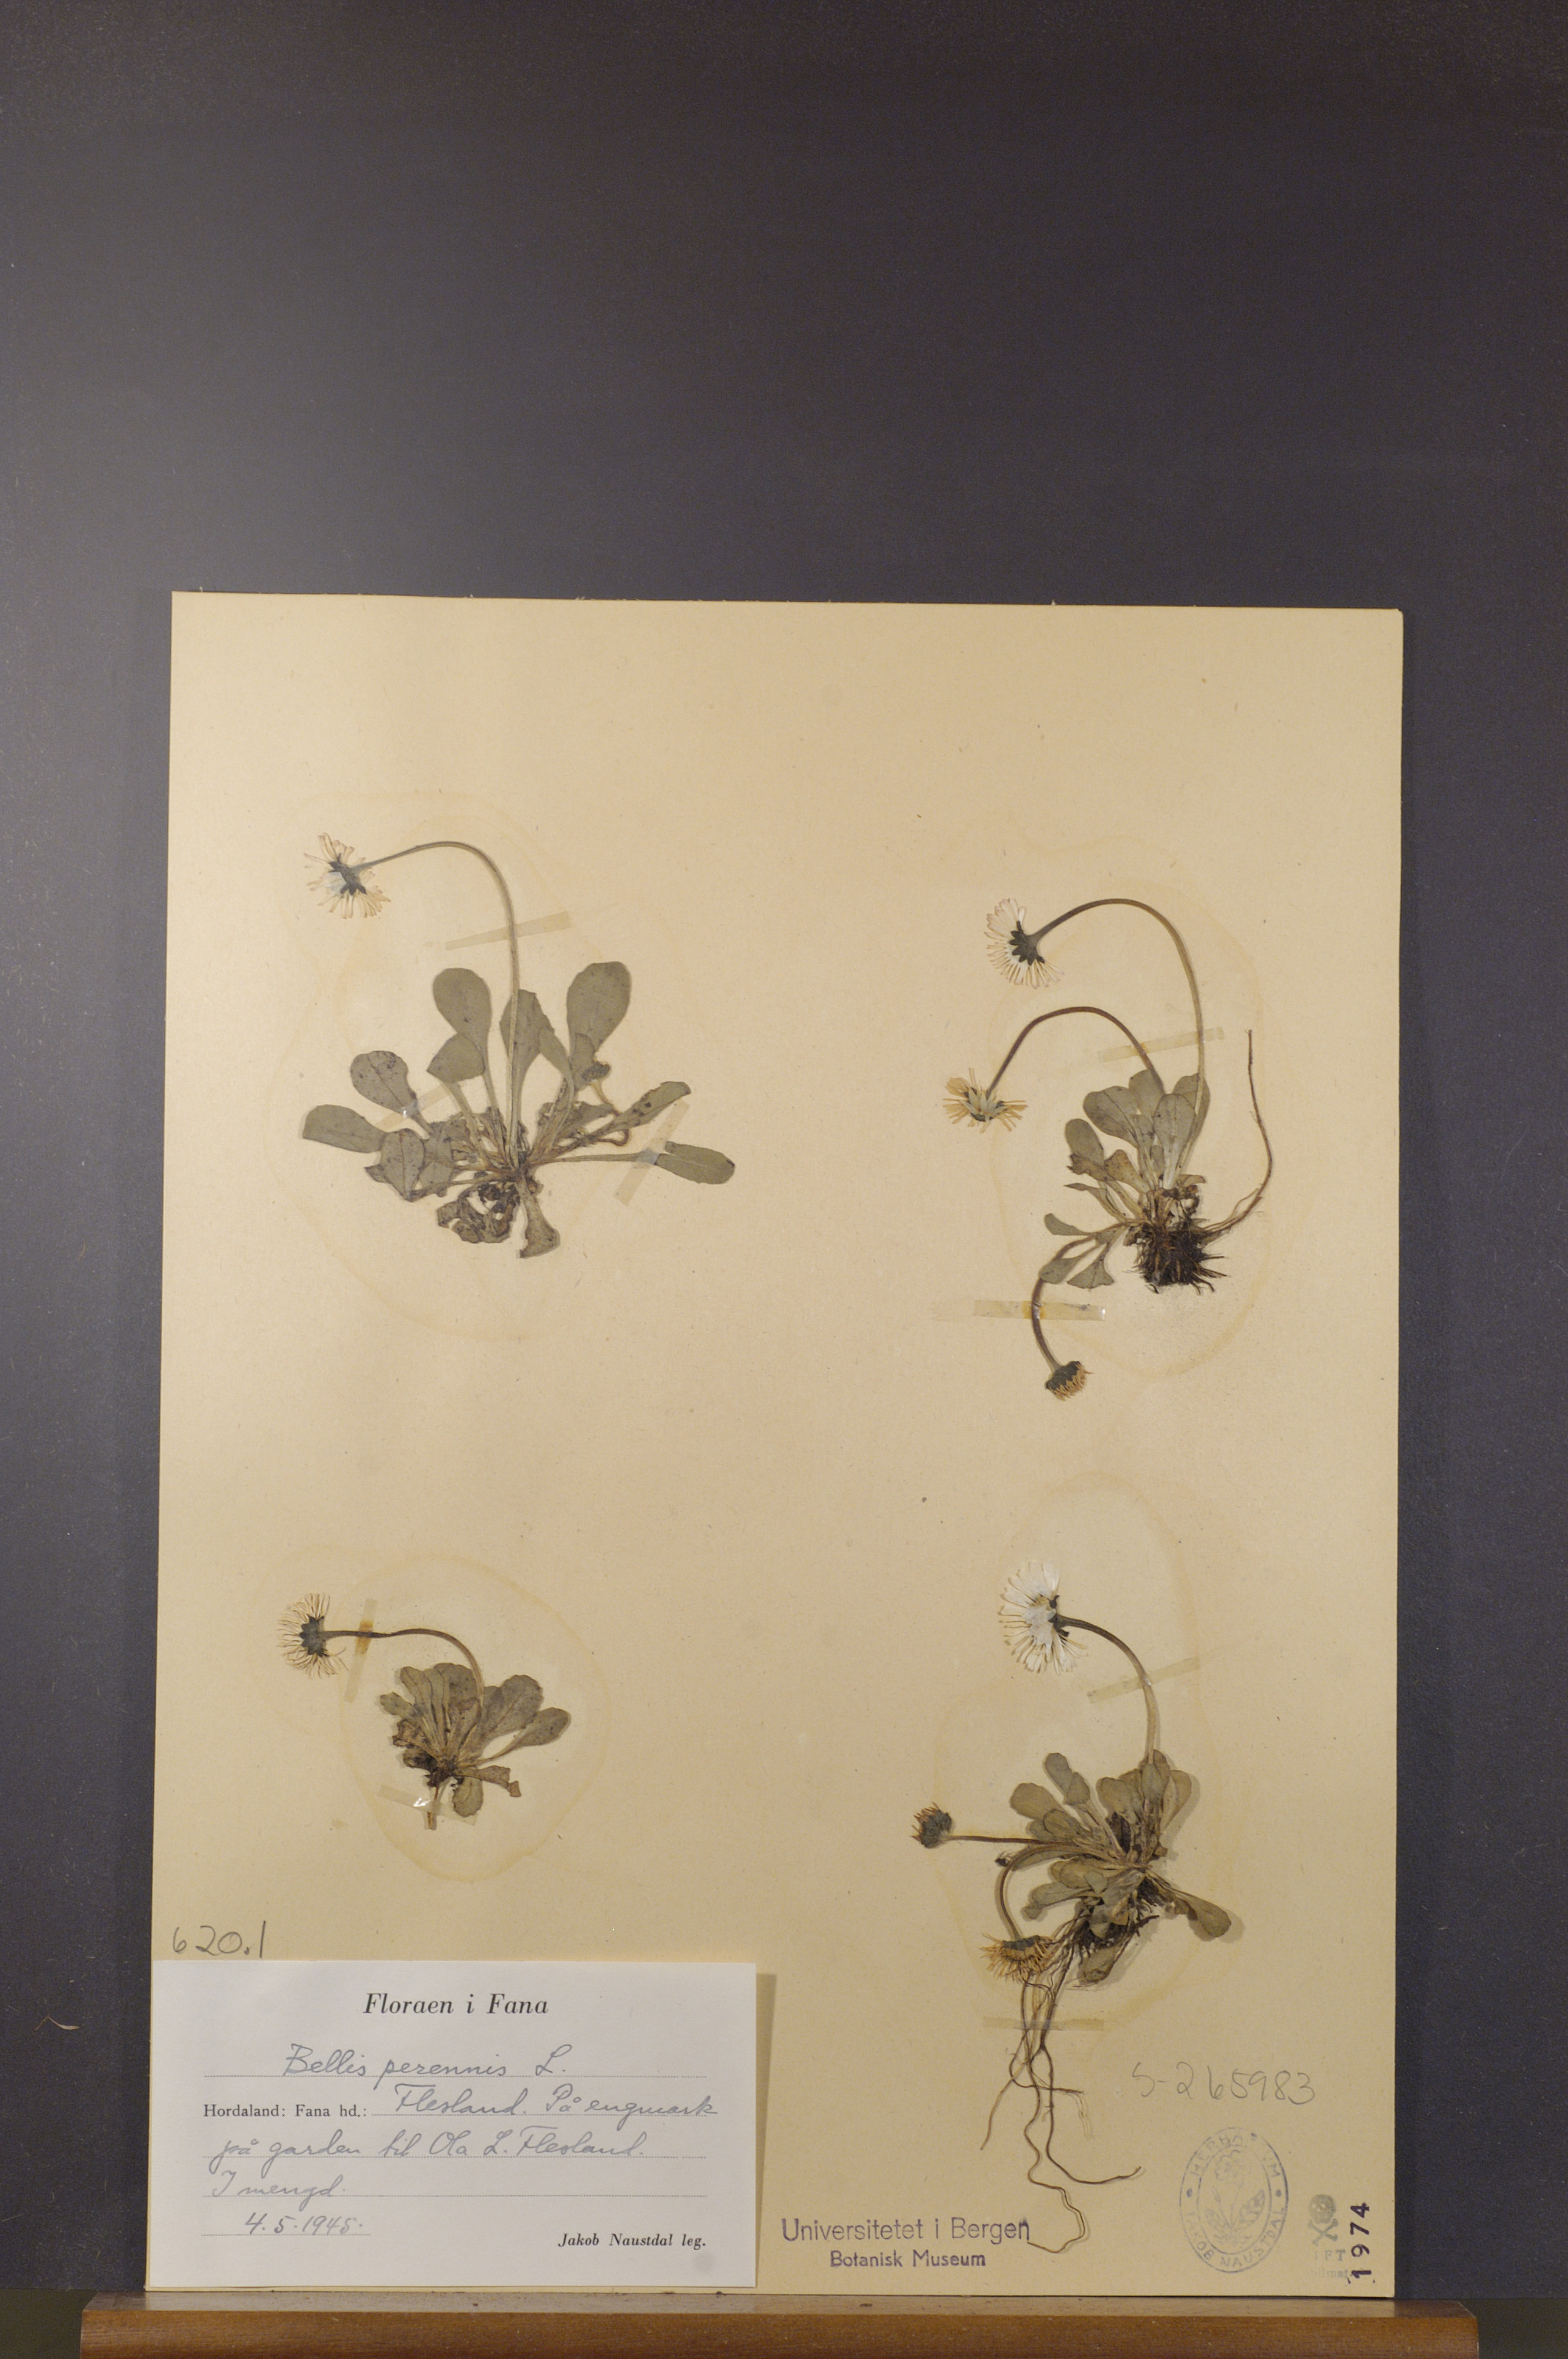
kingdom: Plantae
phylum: Tracheophyta
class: Magnoliopsida
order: Asterales
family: Asteraceae
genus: Bellis
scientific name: Bellis perennis
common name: Lawndaisy
